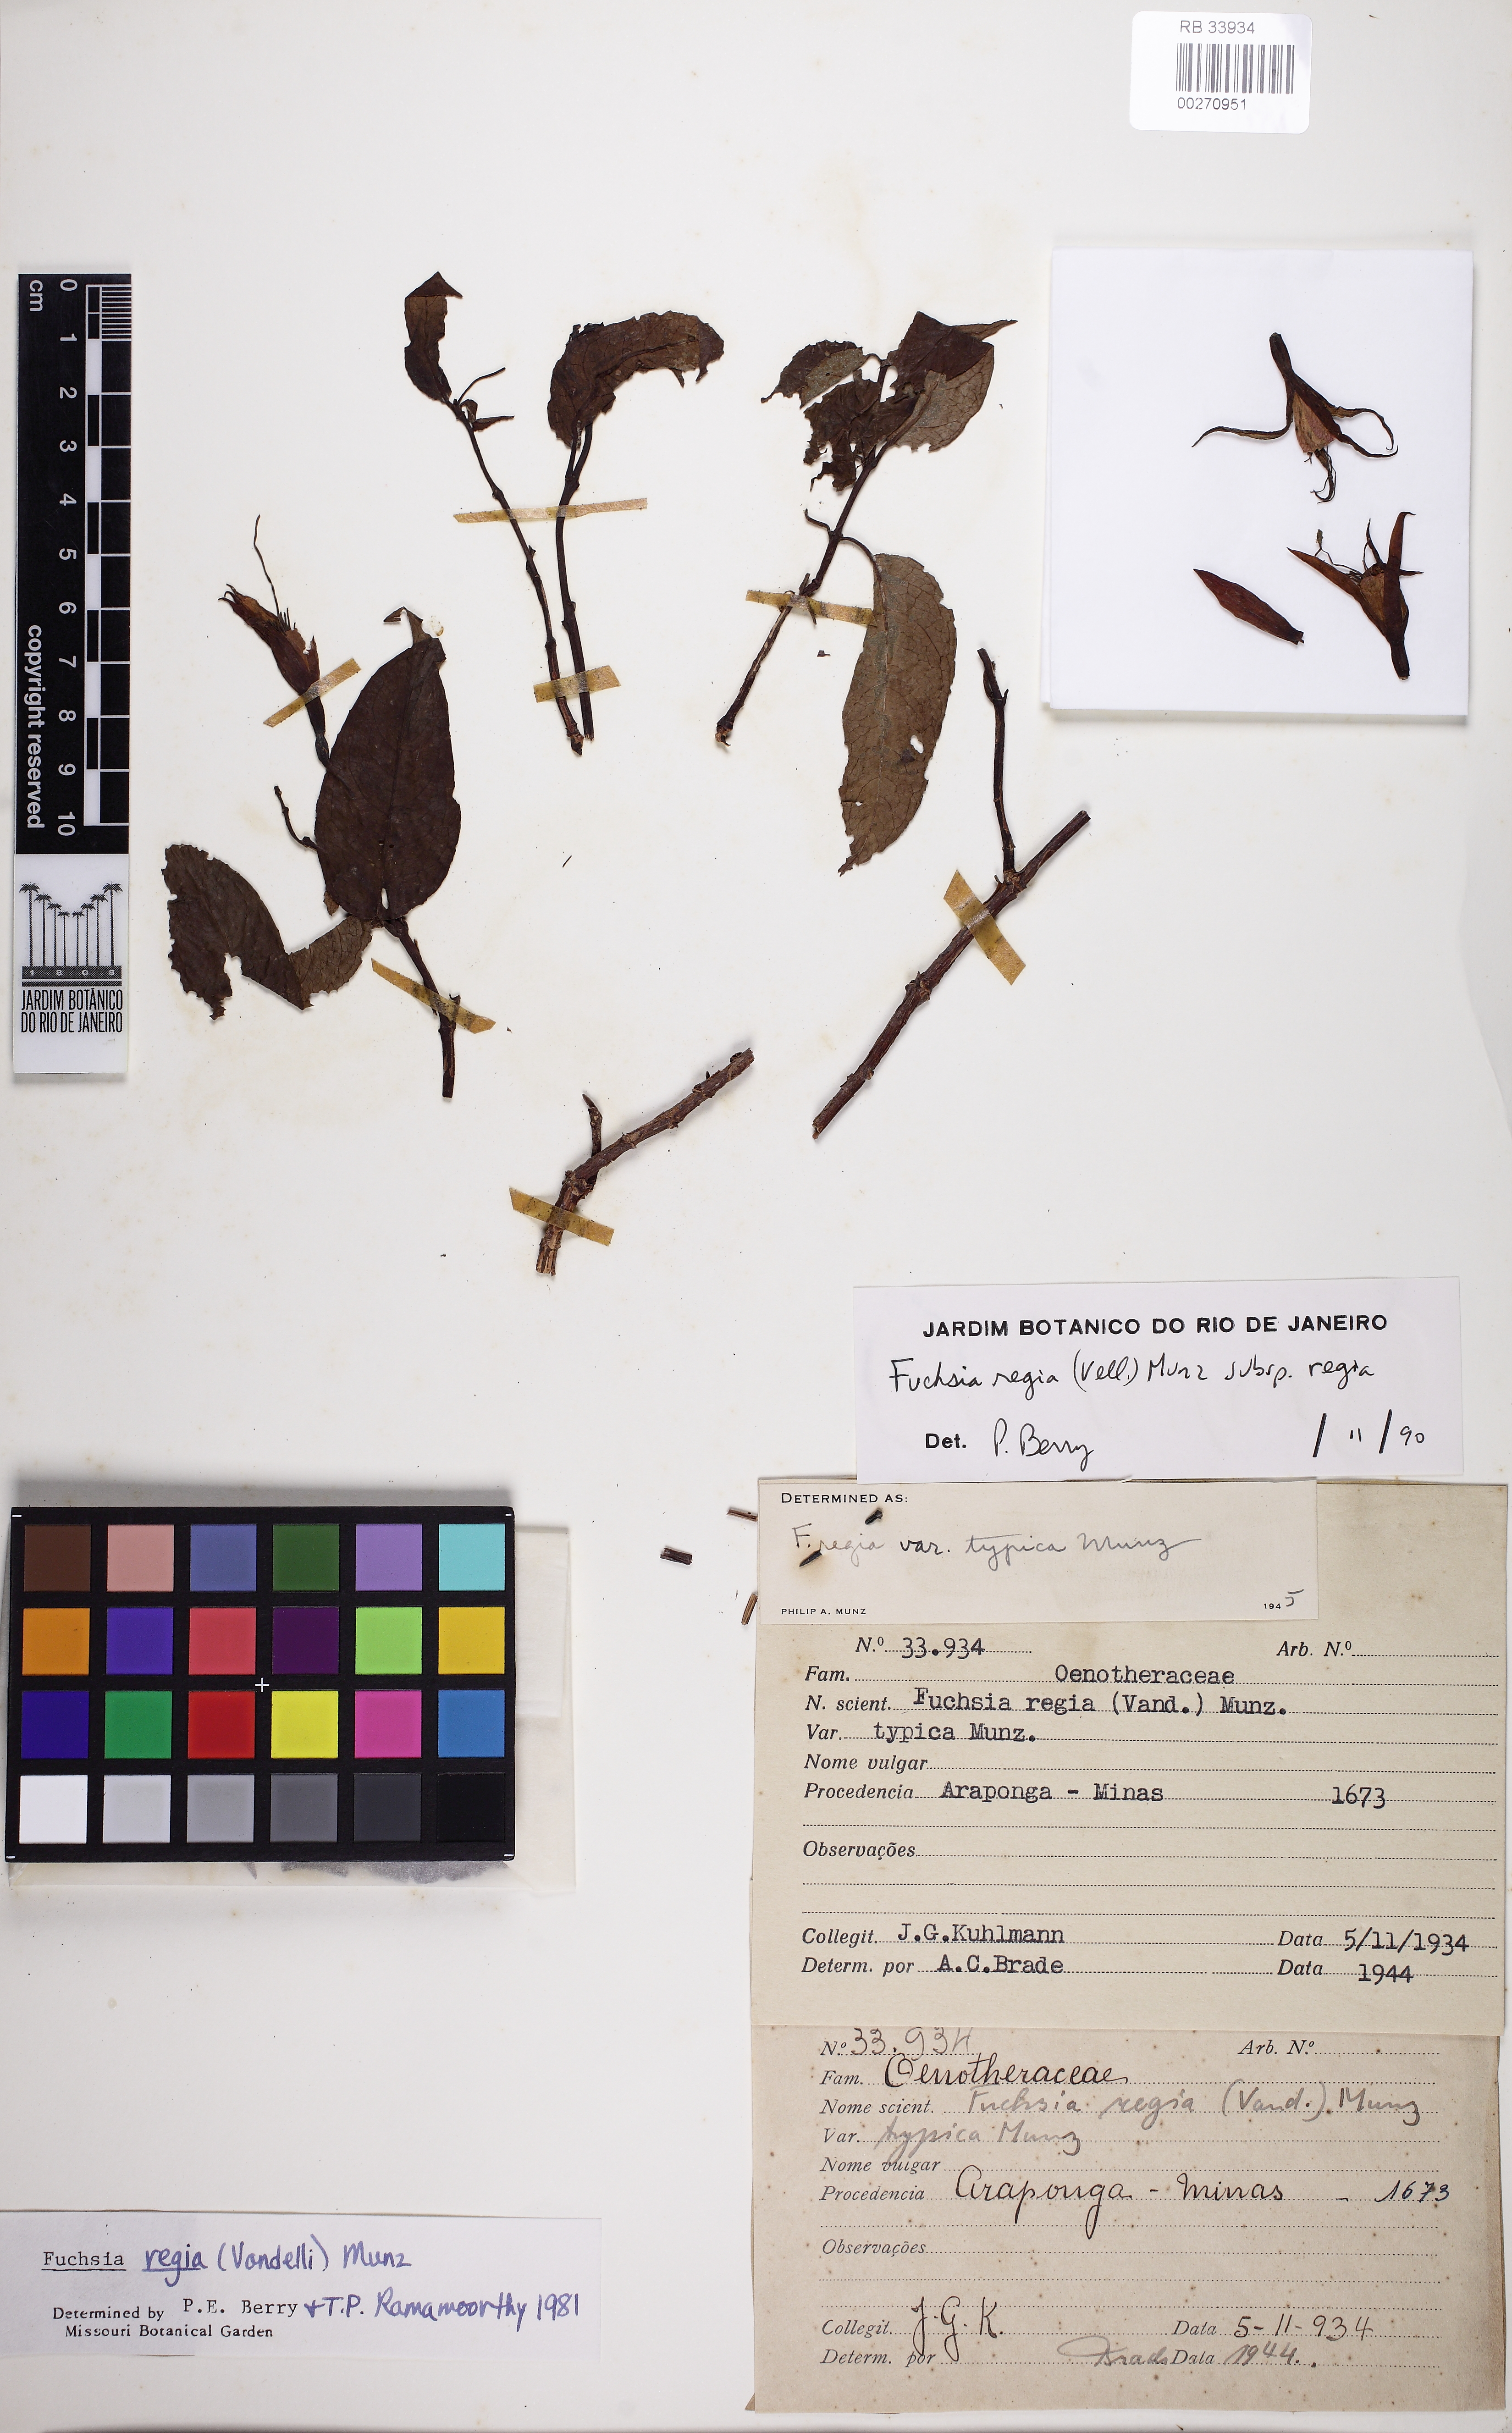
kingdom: Plantae
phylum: Tracheophyta
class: Magnoliopsida
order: Myrtales
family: Onagraceae
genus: Fuchsia
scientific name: Fuchsia regia
